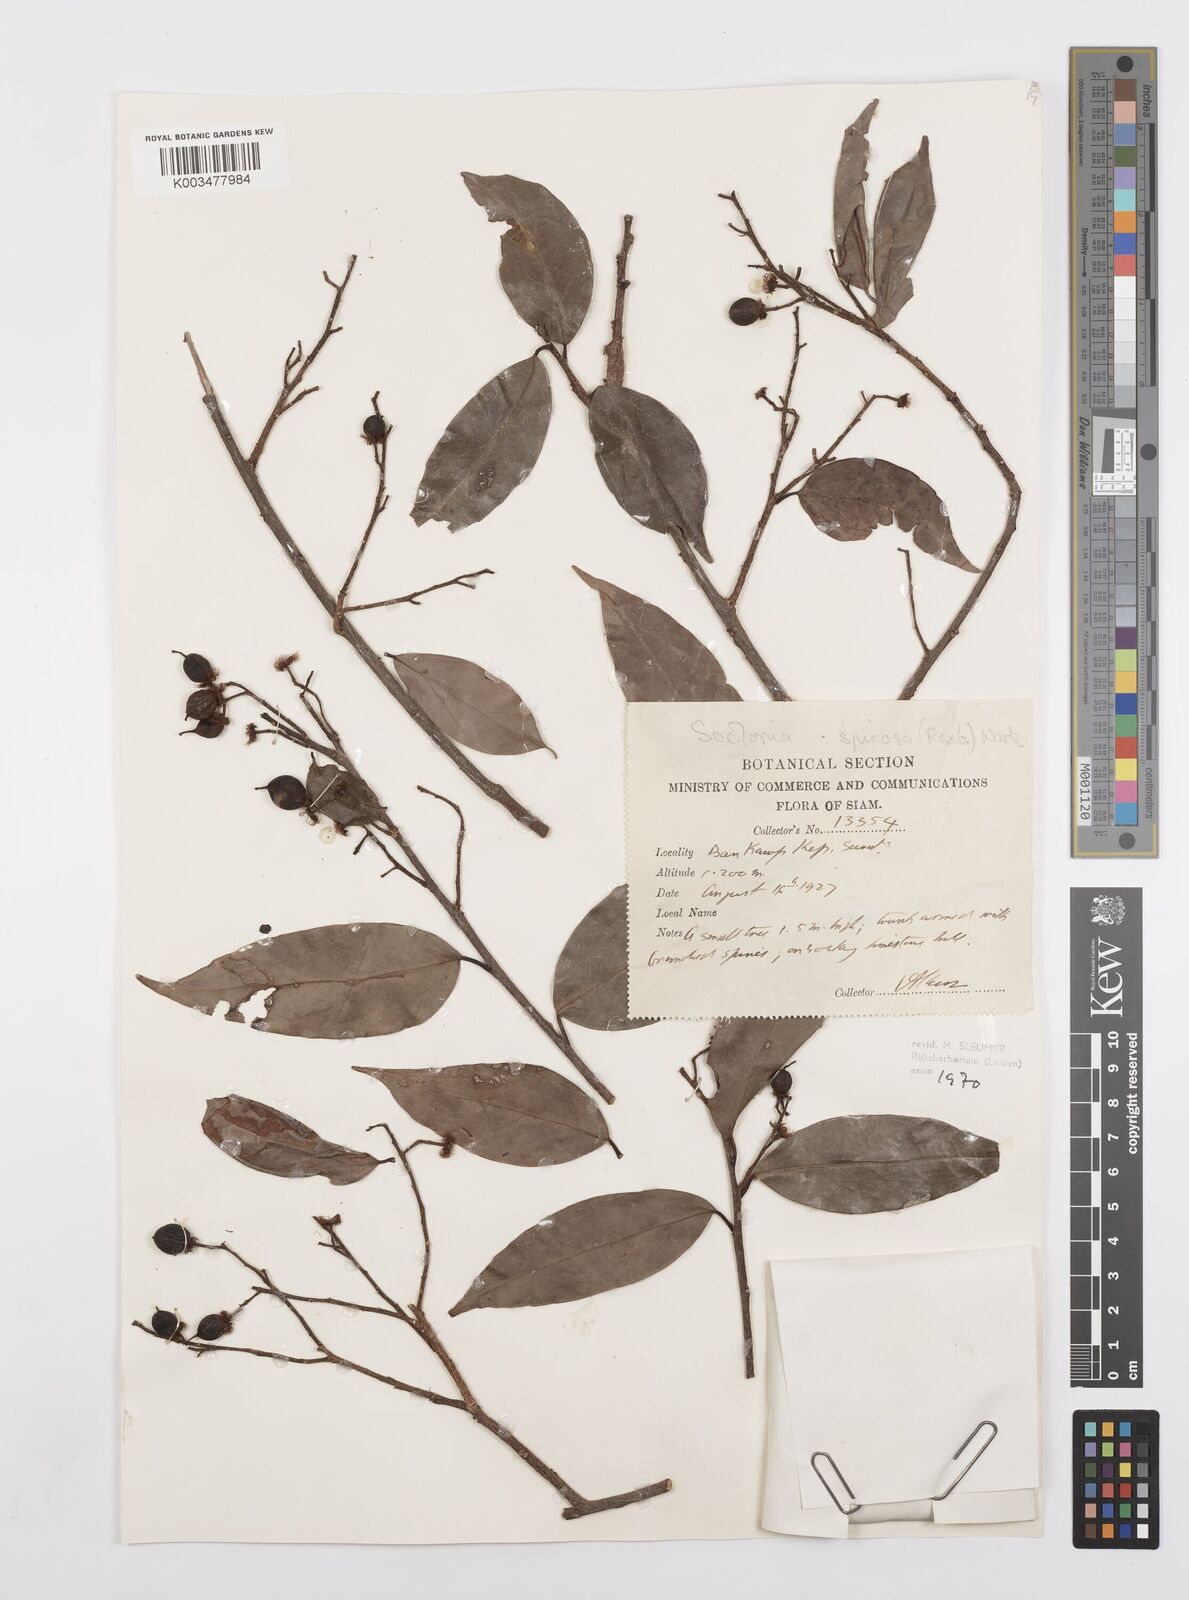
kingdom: Plantae
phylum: Tracheophyta
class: Magnoliopsida
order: Malpighiales
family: Salicaceae
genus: Scolopia
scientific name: Scolopia spinosa
